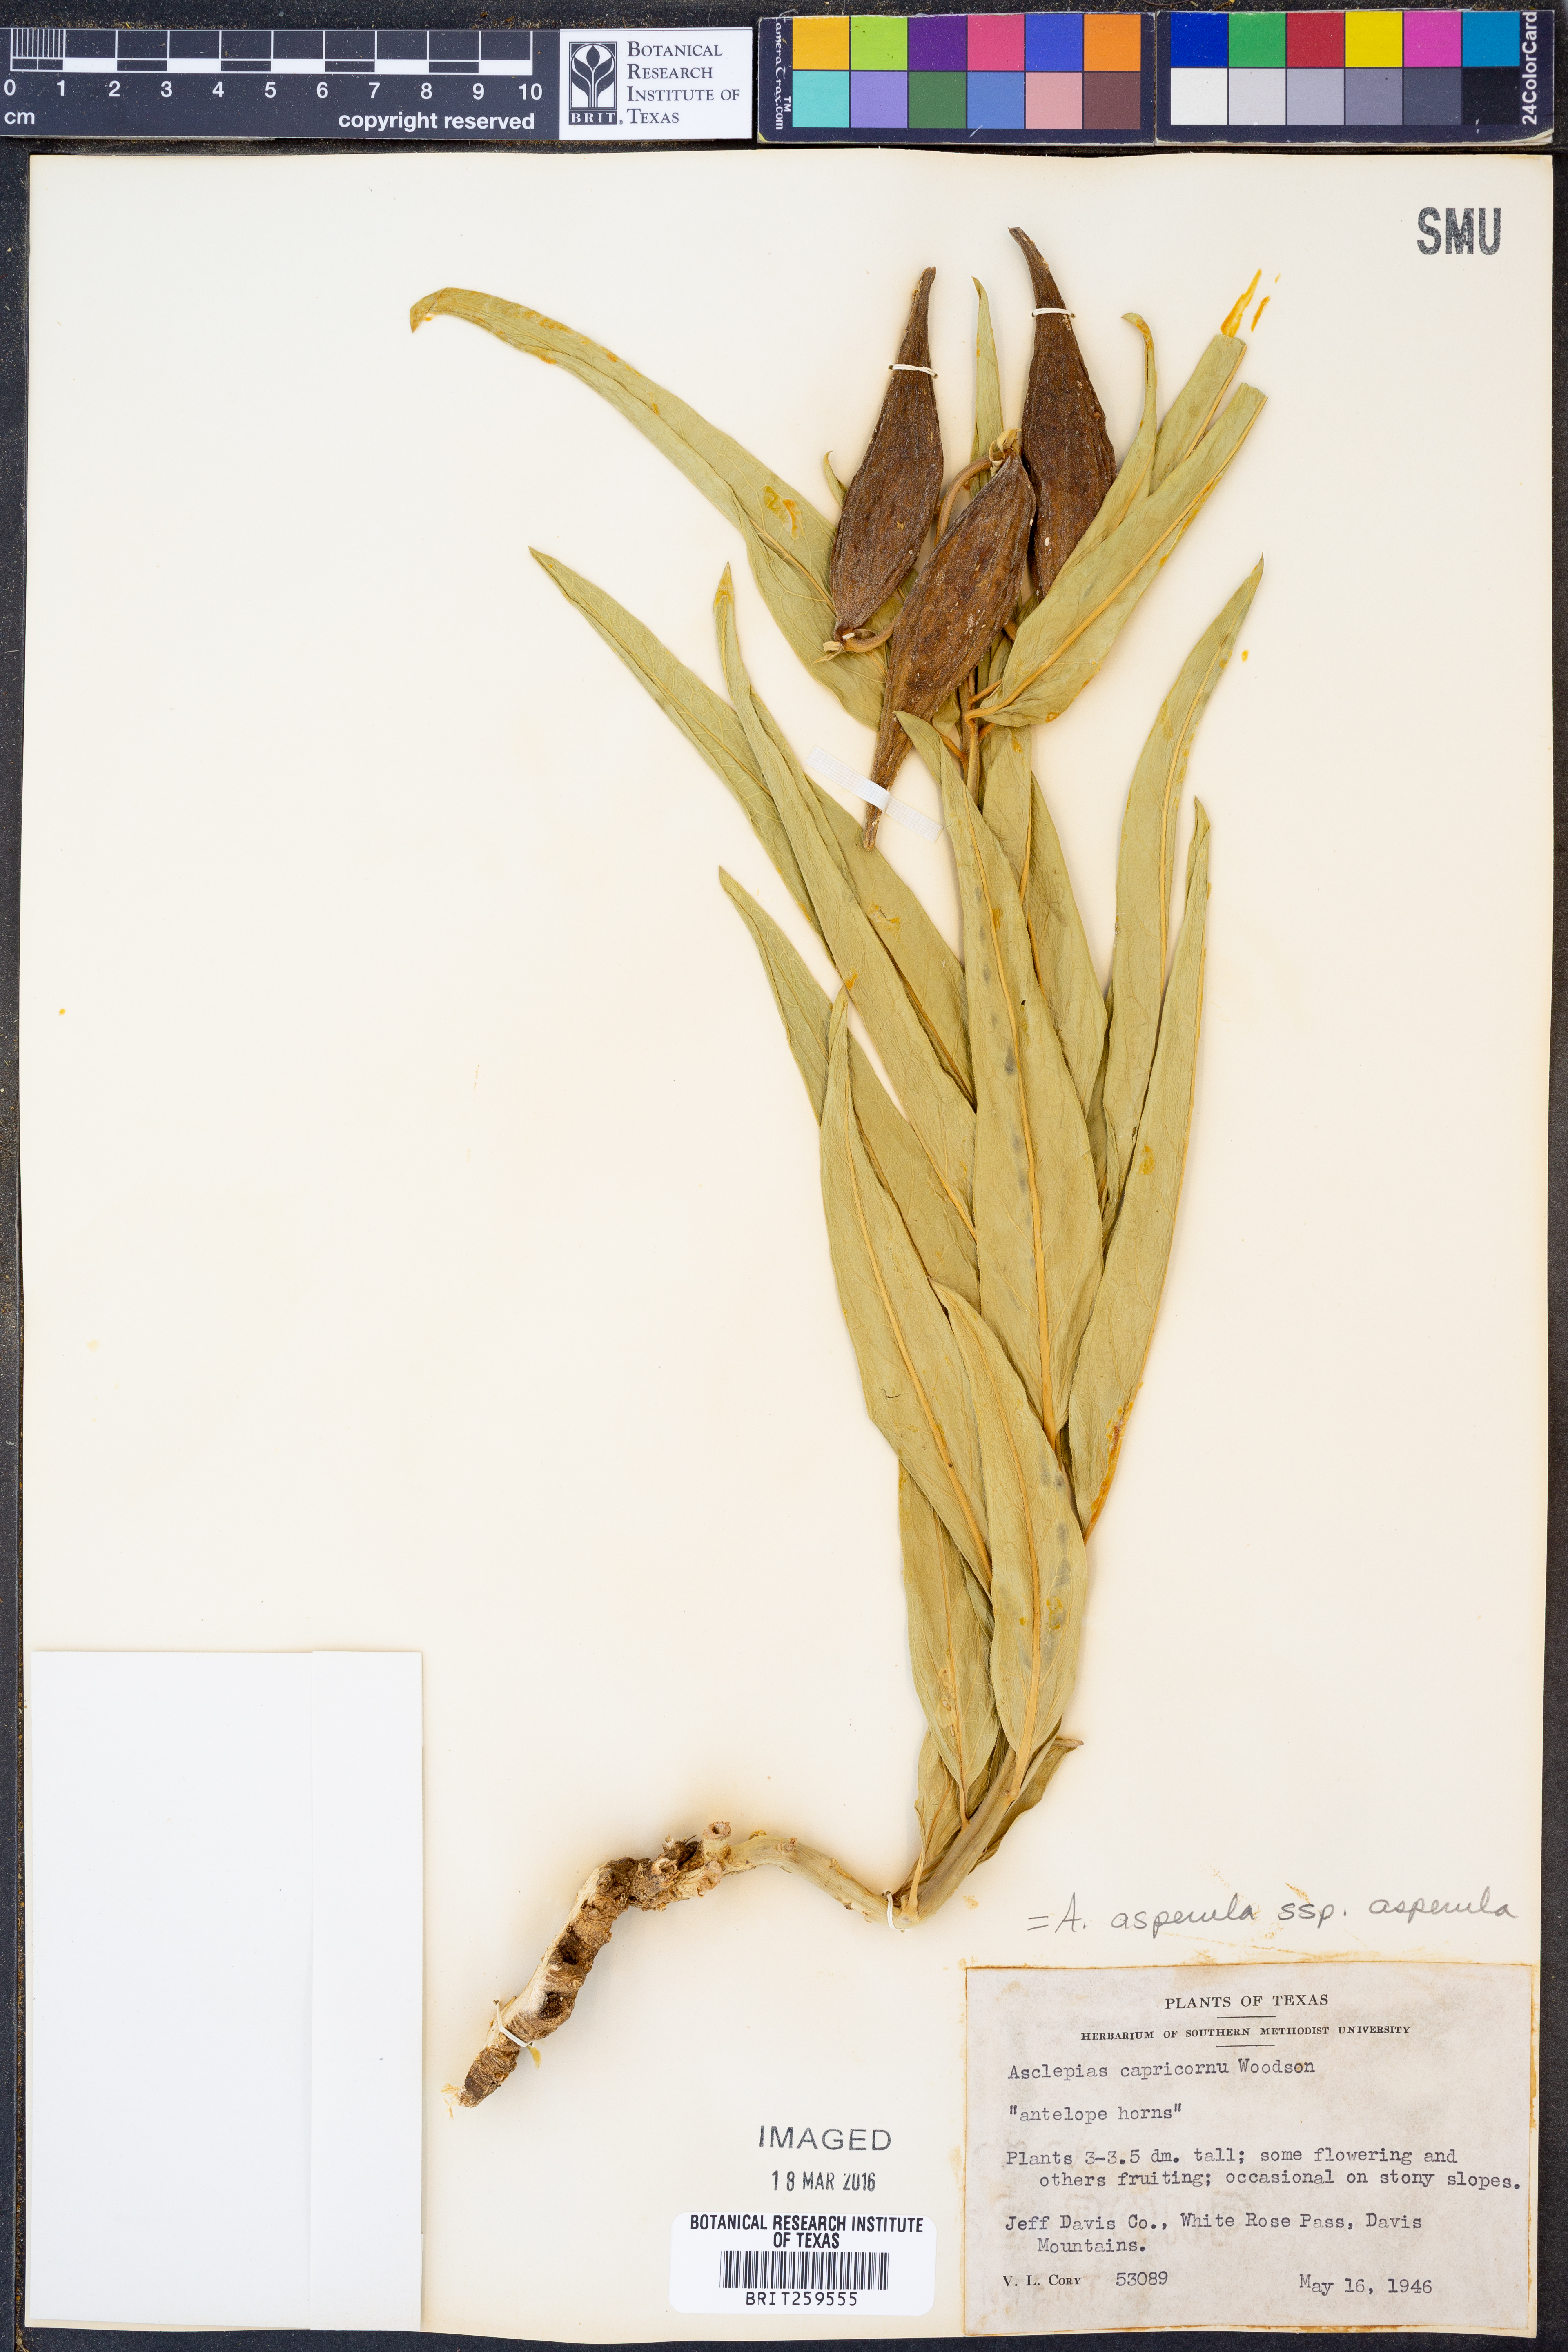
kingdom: Plantae
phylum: Tracheophyta
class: Magnoliopsida
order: Gentianales
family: Apocynaceae
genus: Asclepias
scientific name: Asclepias asperula
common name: Antelope horns
